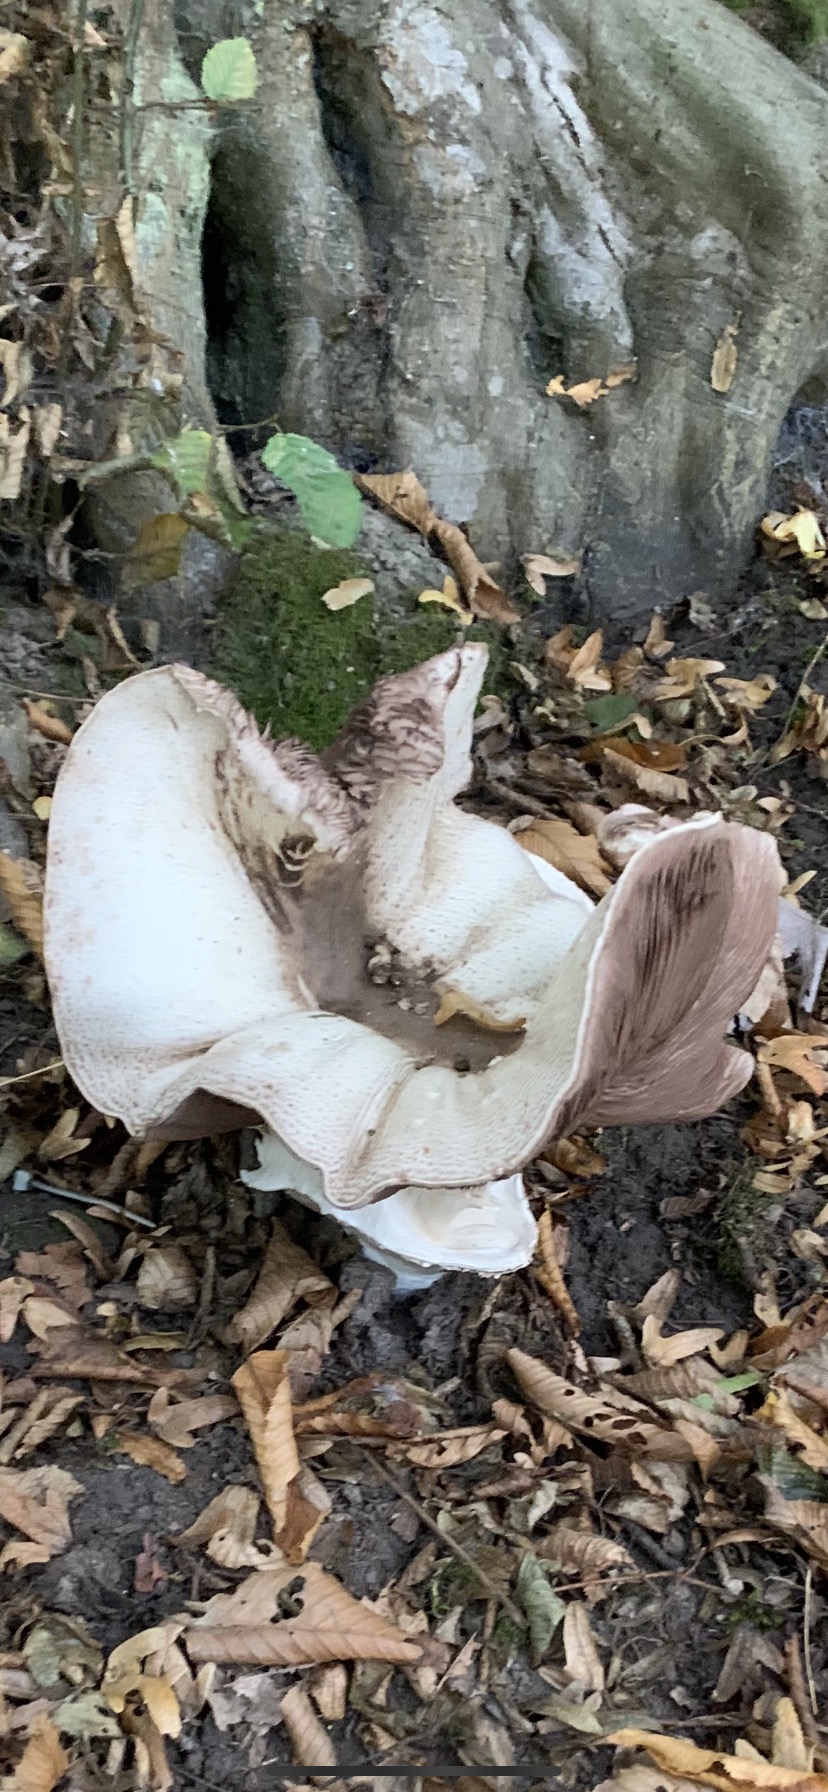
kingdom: Fungi
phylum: Basidiomycota
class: Agaricomycetes
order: Agaricales
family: Agaricaceae
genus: Agaricus
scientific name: Agaricus
